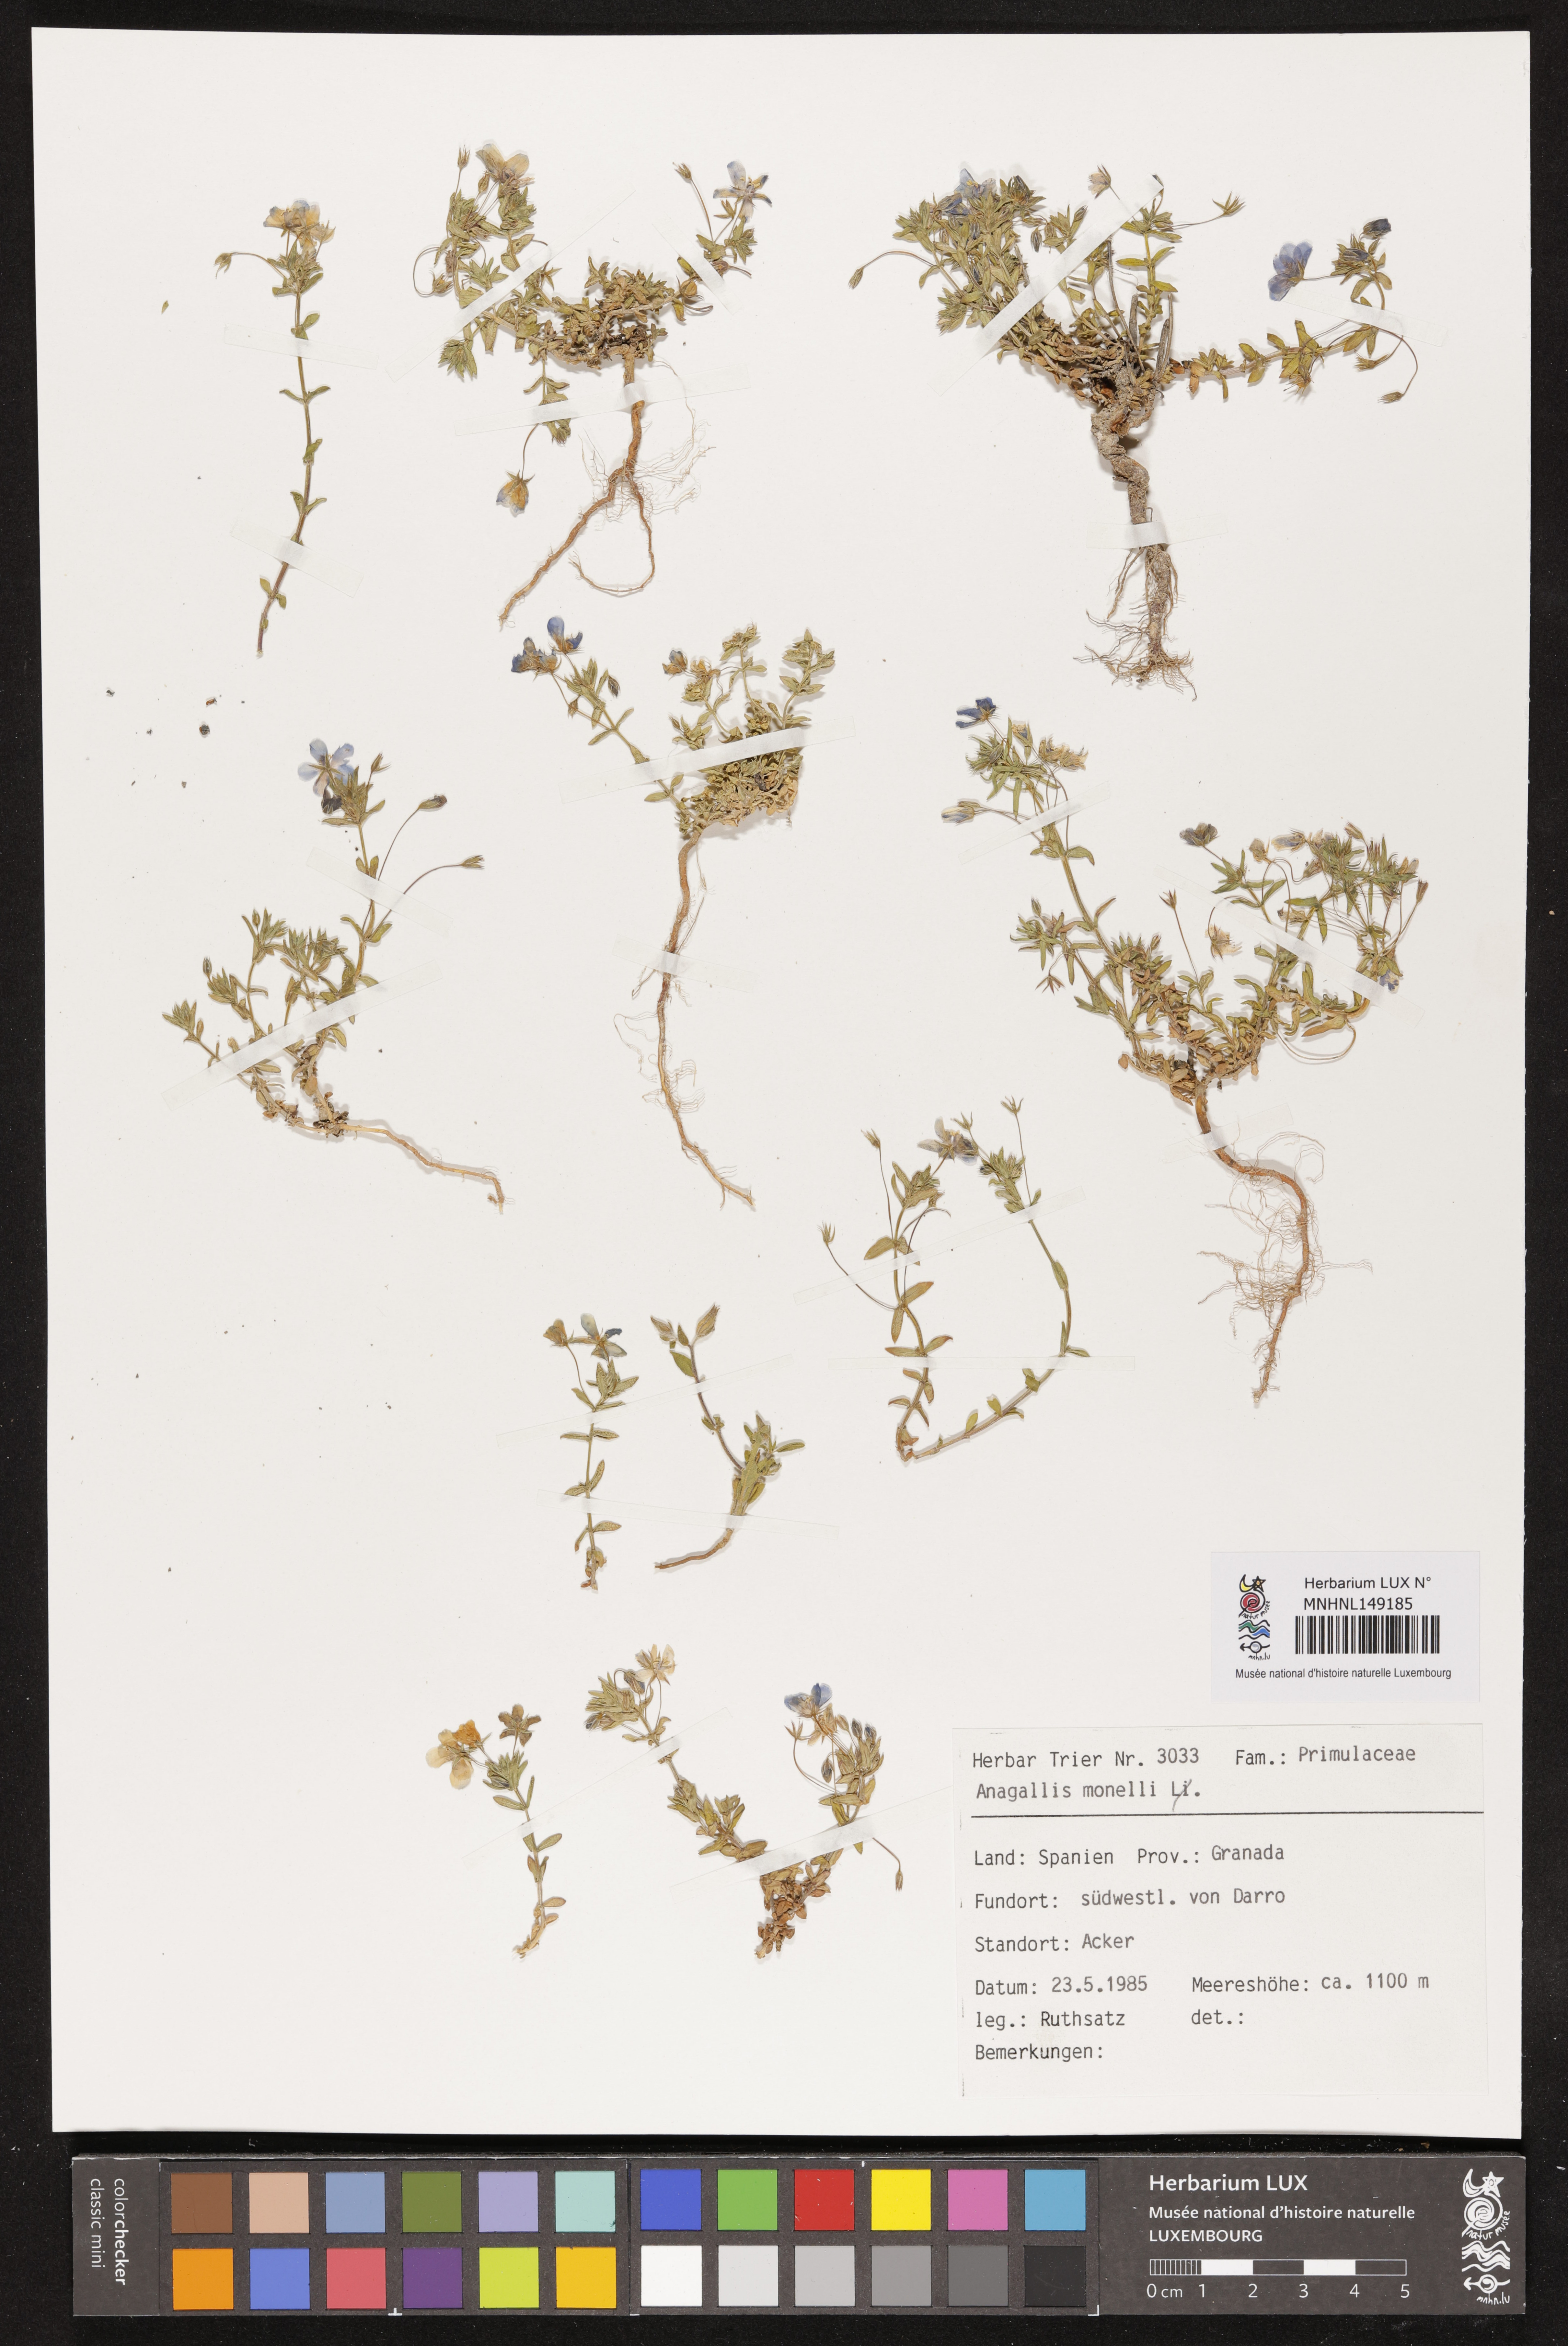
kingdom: Plantae
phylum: Tracheophyta
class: Magnoliopsida
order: Ericales
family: Primulaceae
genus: Lysimachia
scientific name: Lysimachia monelli
